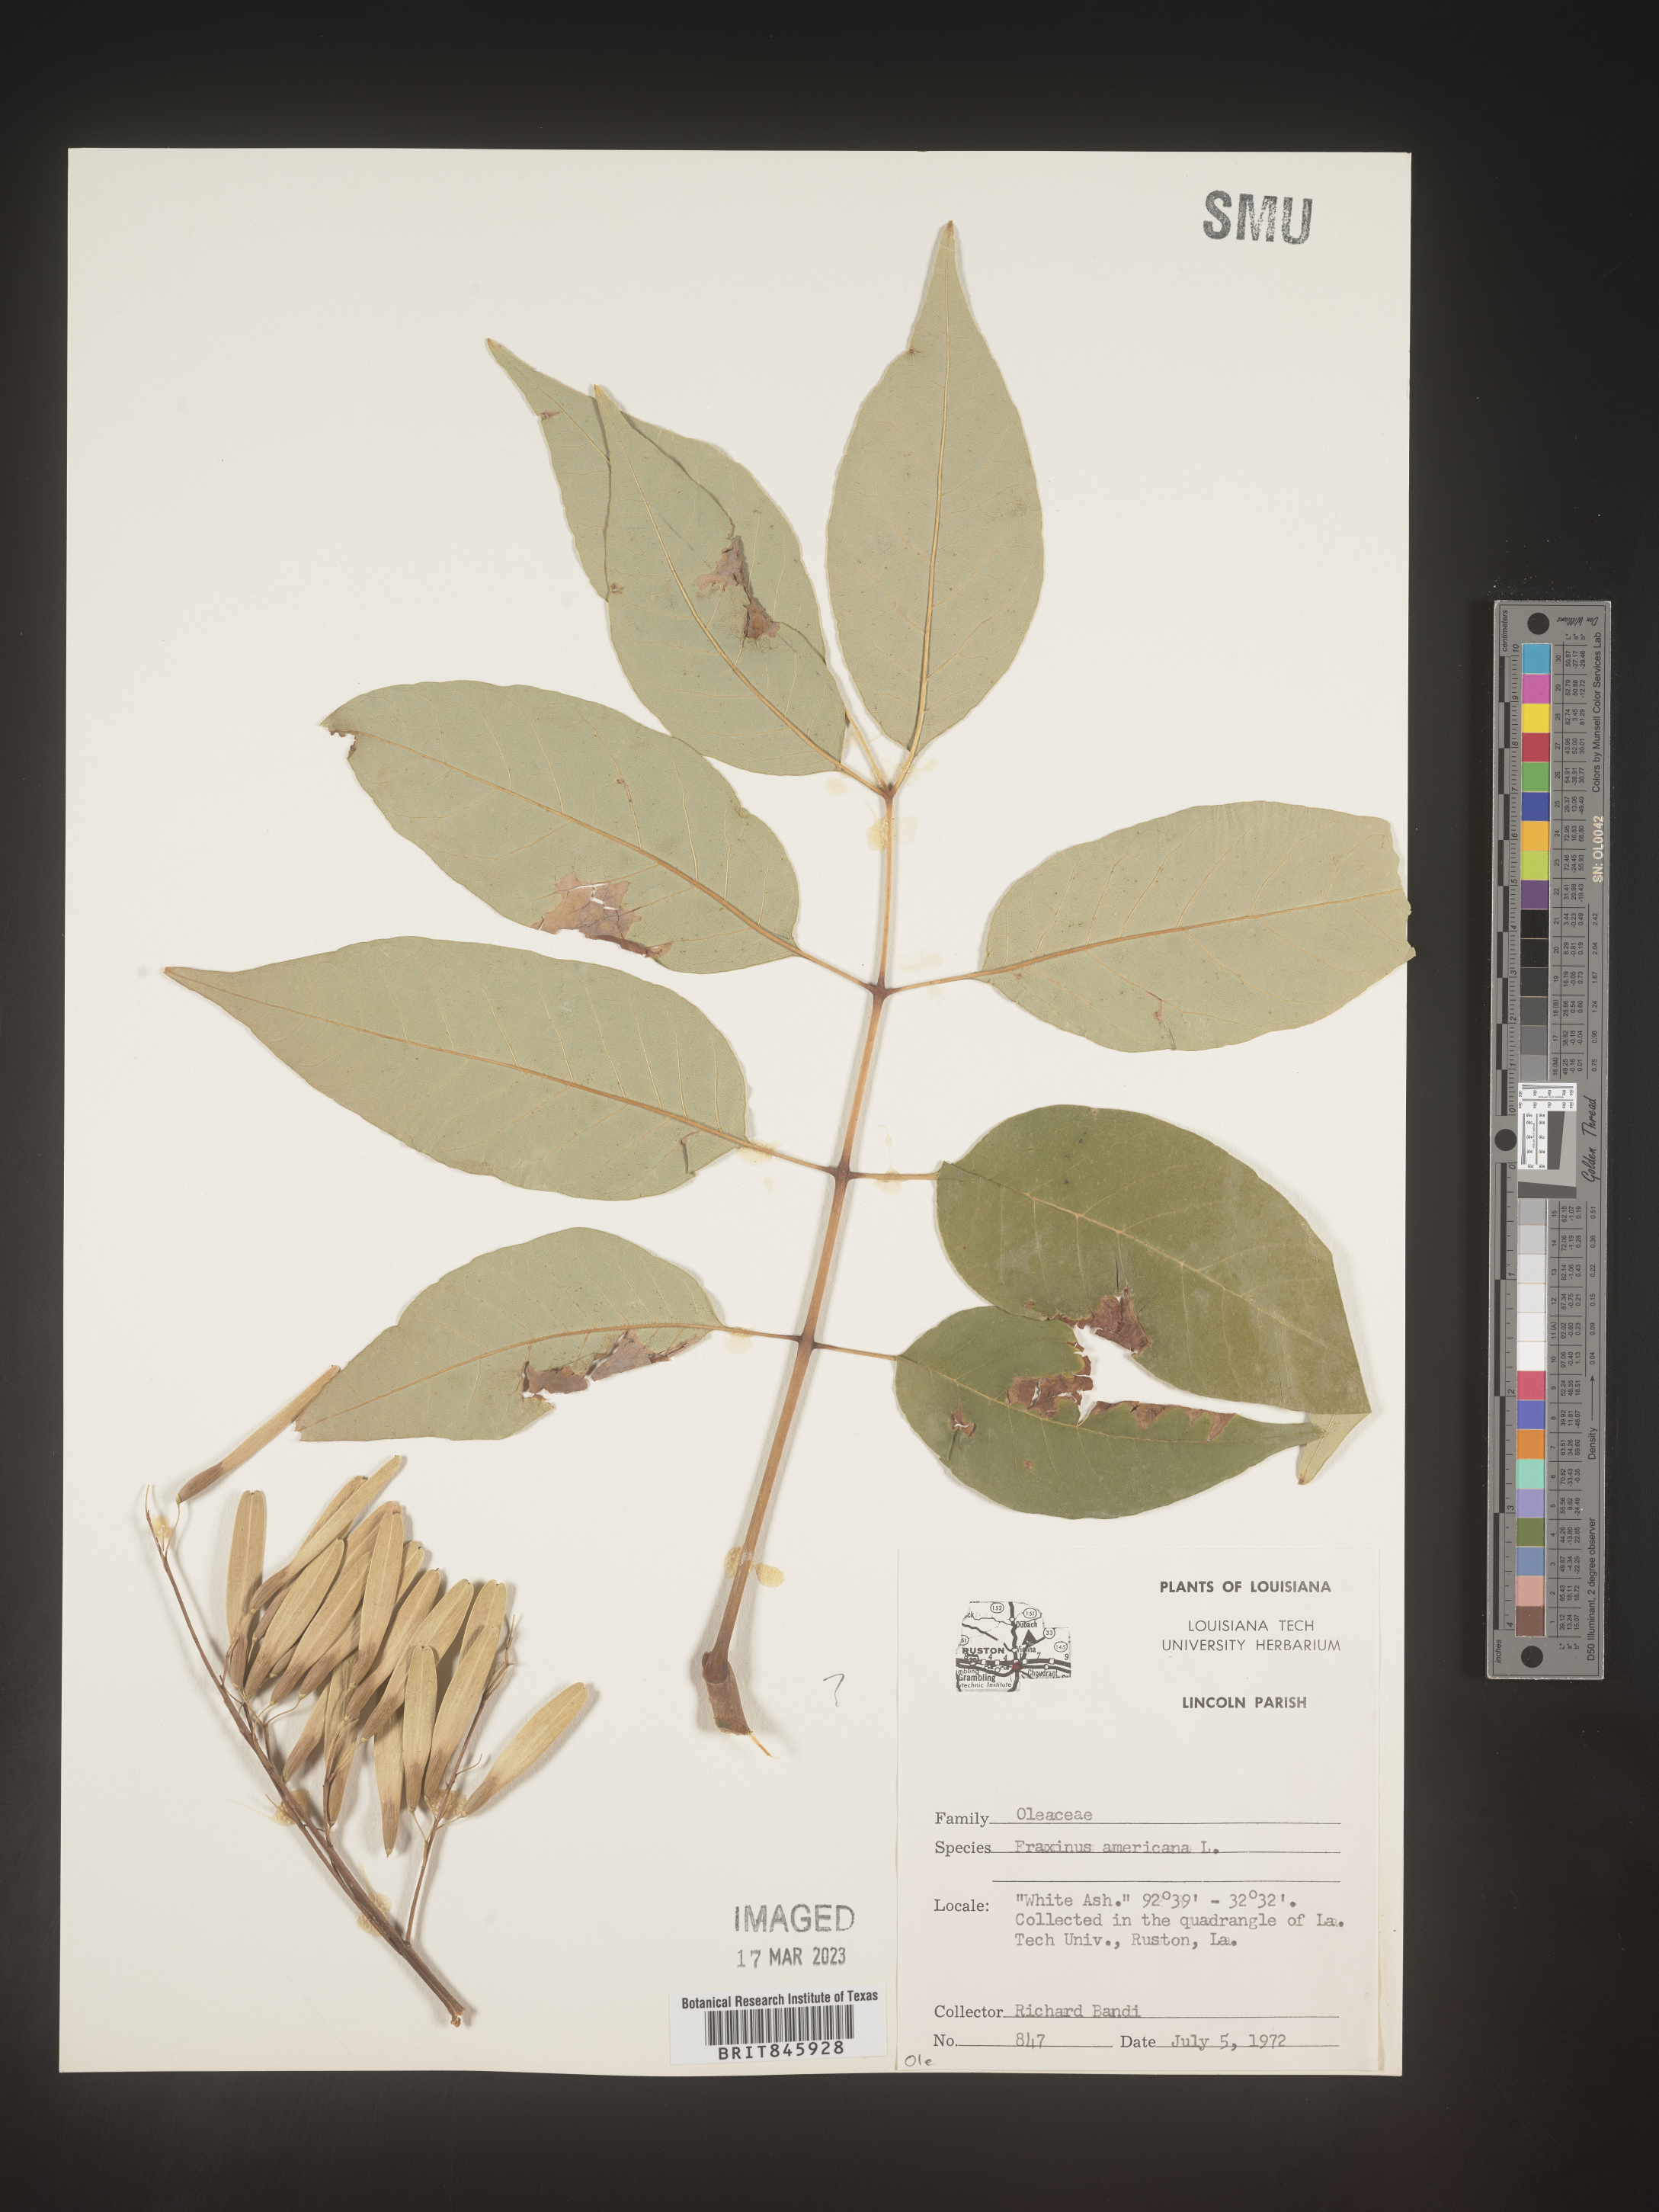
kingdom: Plantae
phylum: Tracheophyta
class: Magnoliopsida
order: Lamiales
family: Oleaceae
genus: Fraxinus
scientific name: Fraxinus americana
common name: White ash
